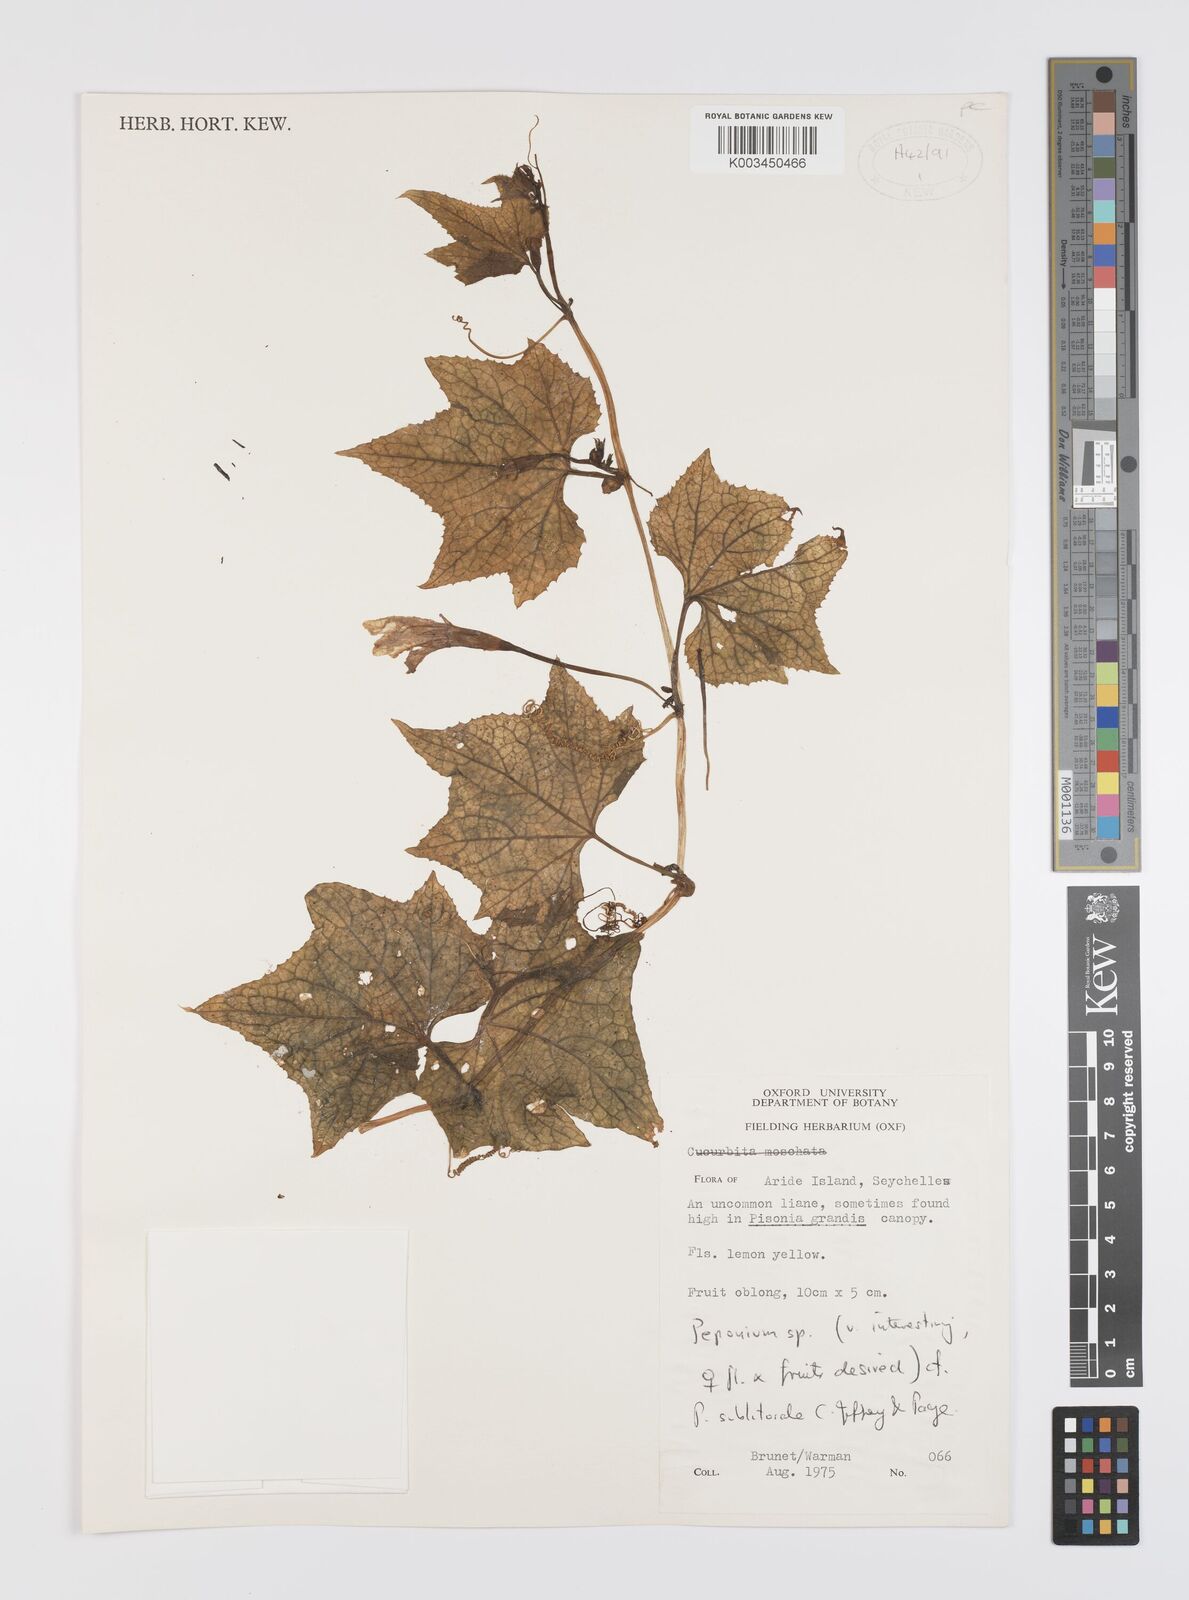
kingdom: Plantae
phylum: Tracheophyta
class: Magnoliopsida
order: Cucurbitales
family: Cucurbitaceae
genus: Peponium
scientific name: Peponium sublitorale
